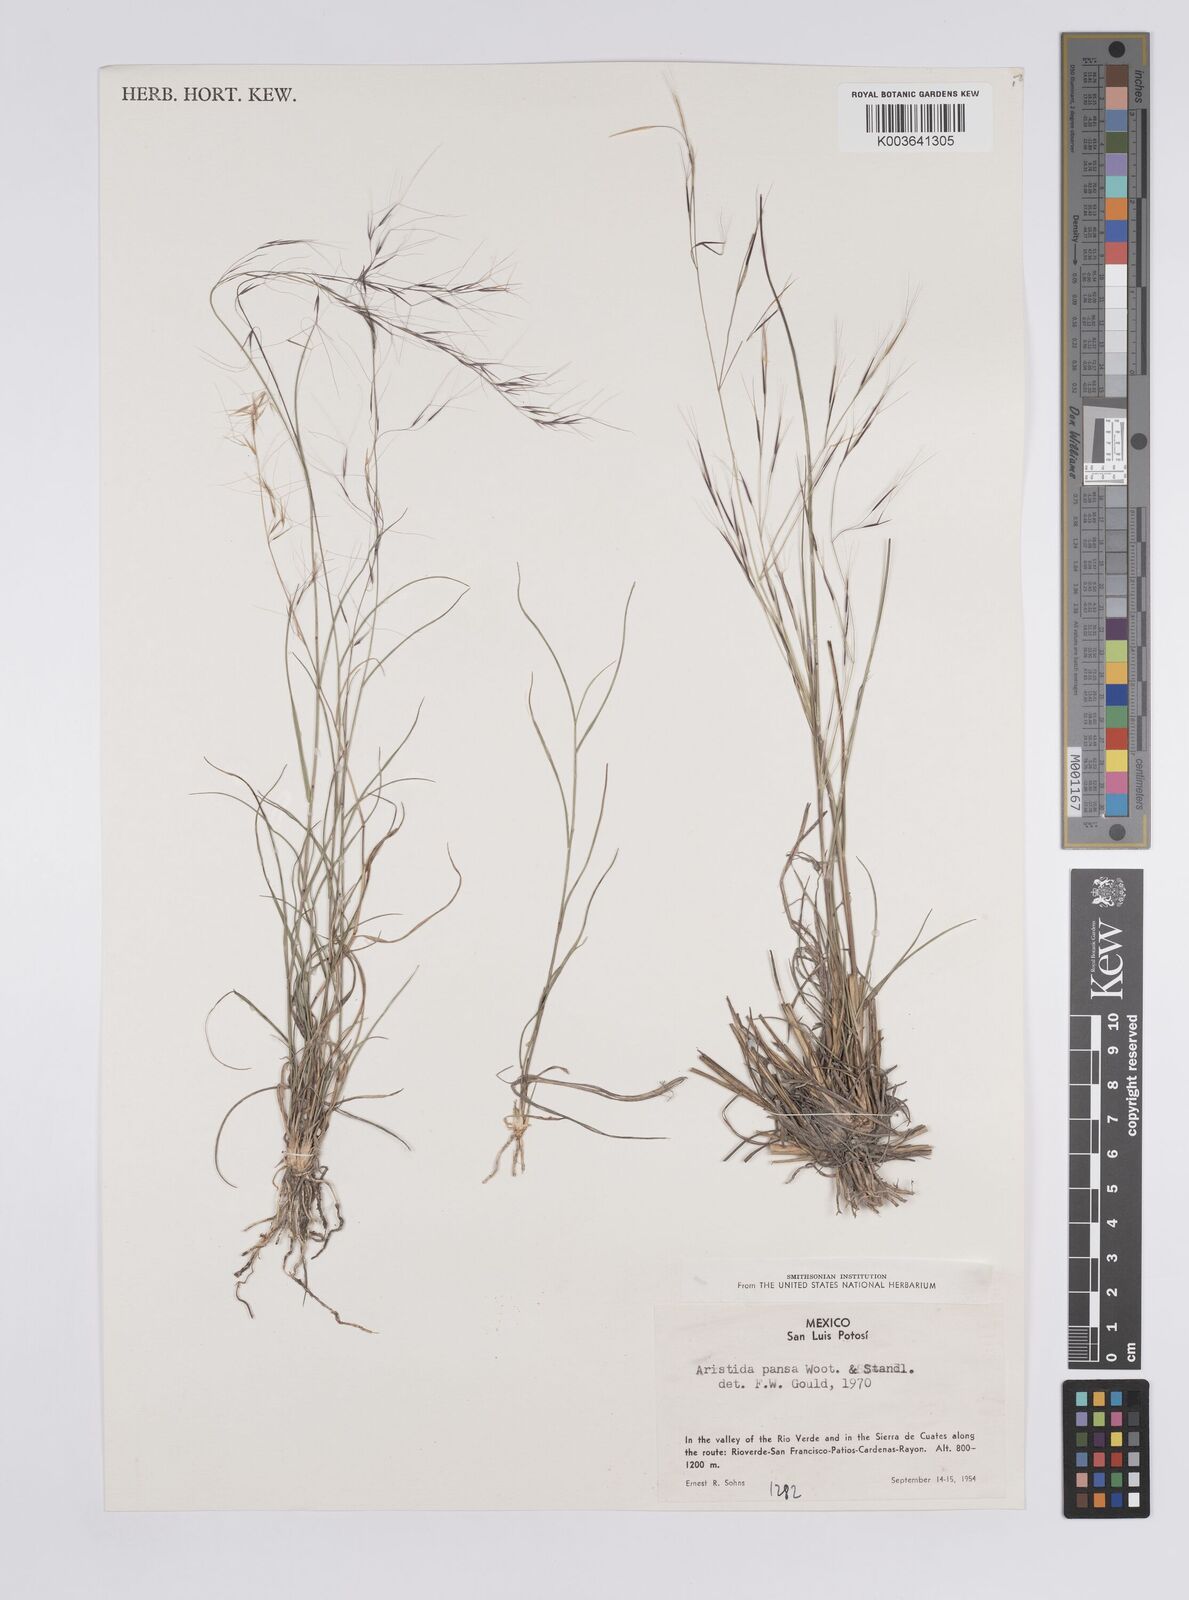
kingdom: Plantae
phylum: Tracheophyta
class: Liliopsida
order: Poales
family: Poaceae
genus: Aristida
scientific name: Aristida pansa
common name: Wooton's three-awn
